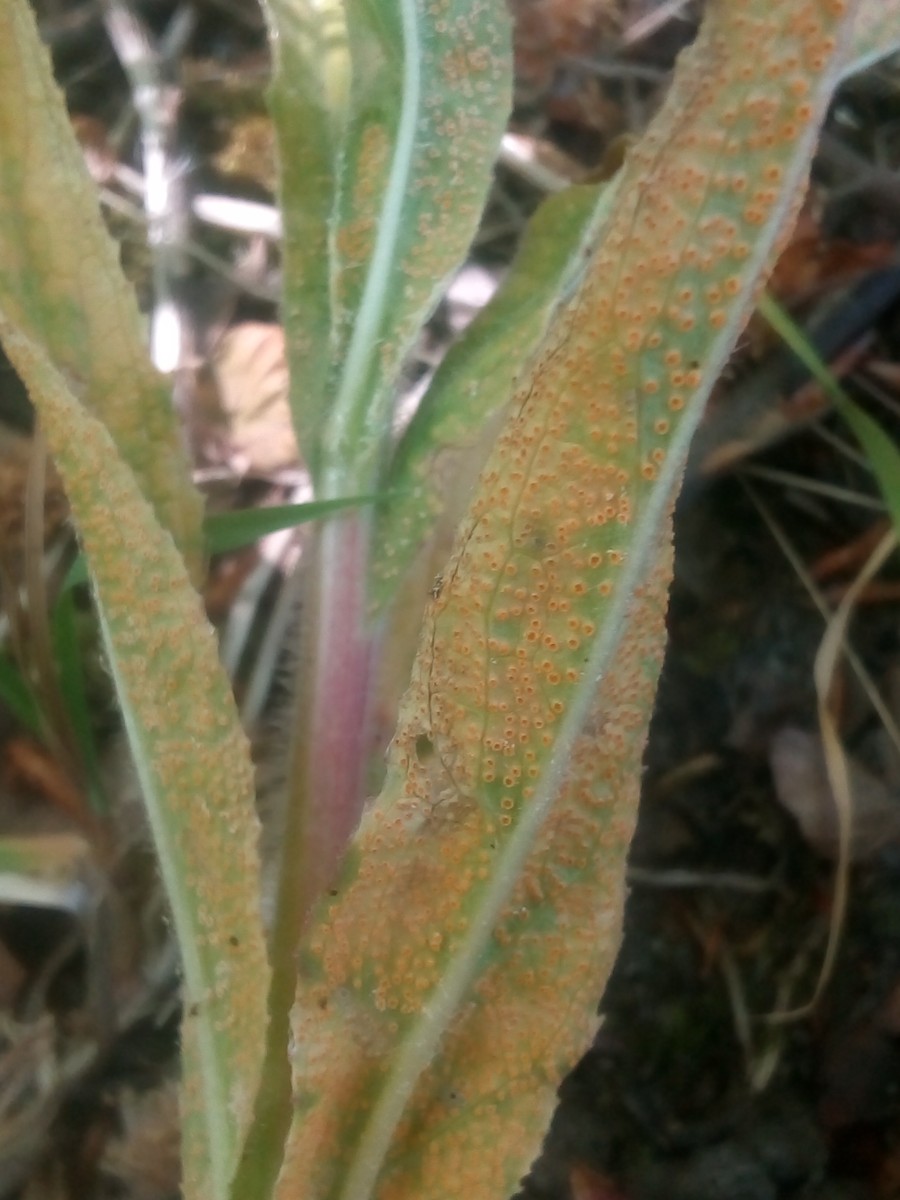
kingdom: Fungi
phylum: Basidiomycota
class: Pucciniomycetes
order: Pucciniales
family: Pucciniaceae
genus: Puccinia
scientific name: Puccinia pulverulenta
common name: dueurt-tvecellerust
